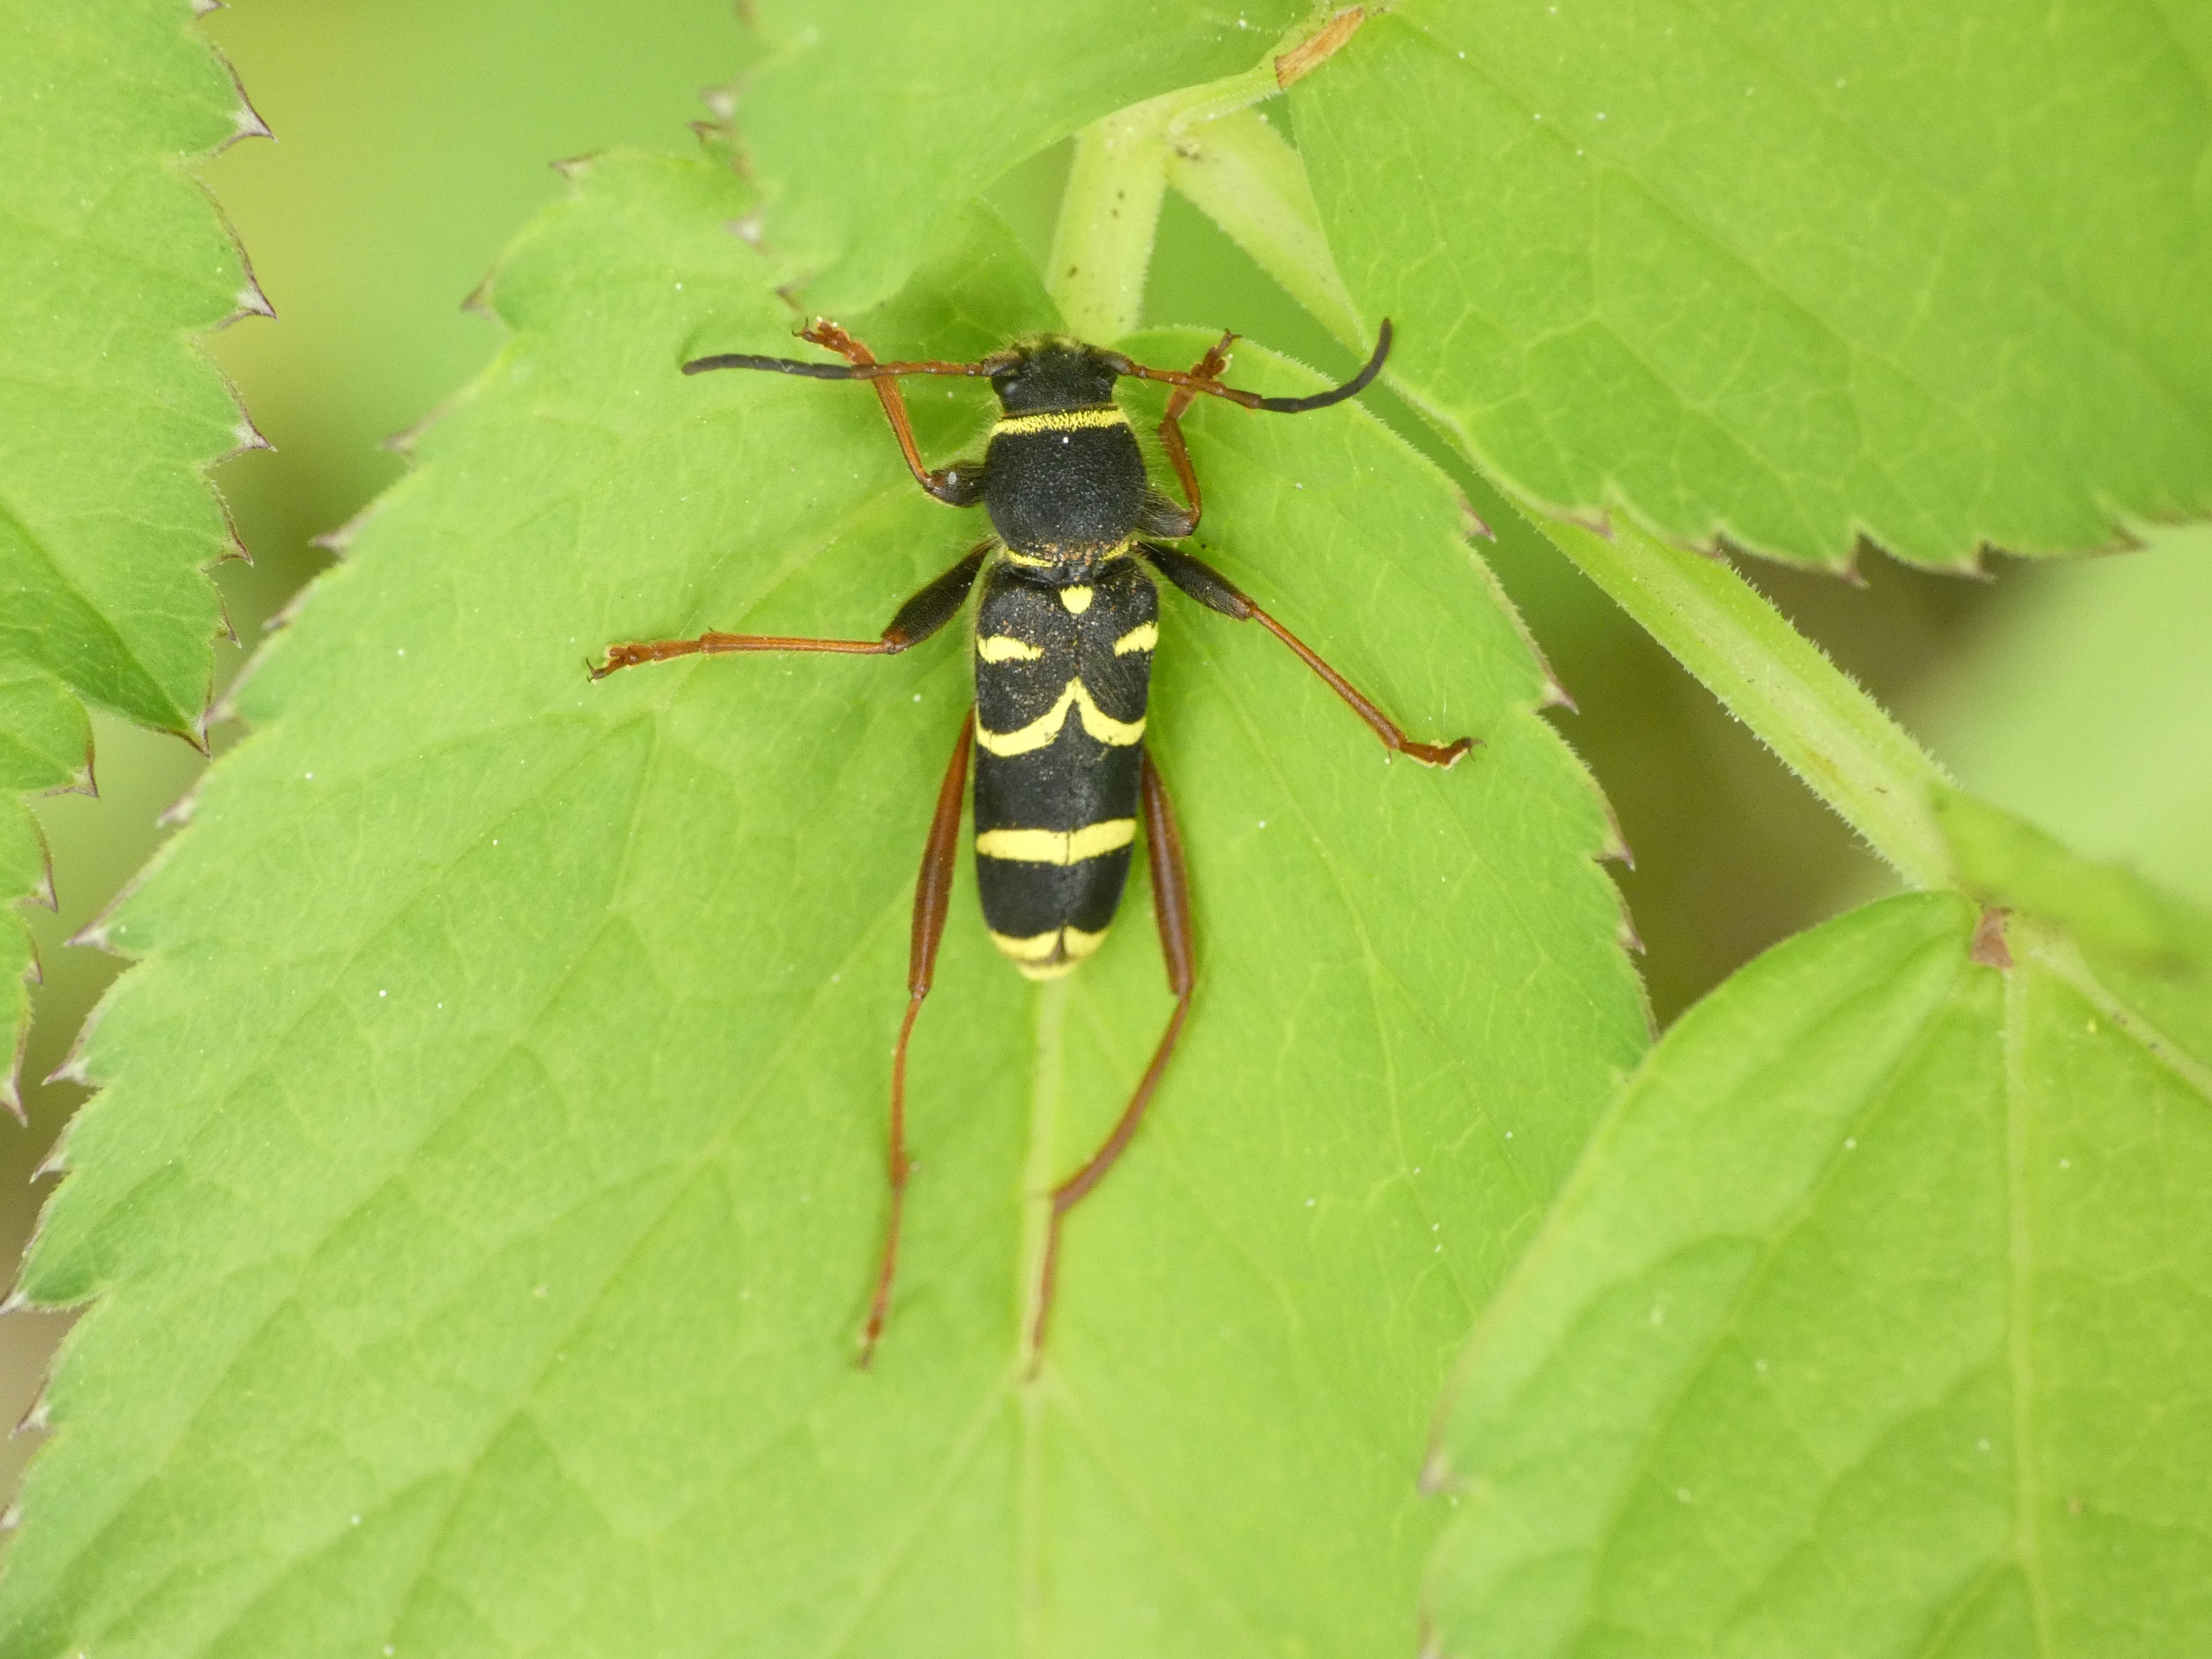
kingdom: Animalia
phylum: Arthropoda
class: Insecta
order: Coleoptera
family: Cerambycidae
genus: Clytus
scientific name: Clytus arietis
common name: Lille hvepsebuk
